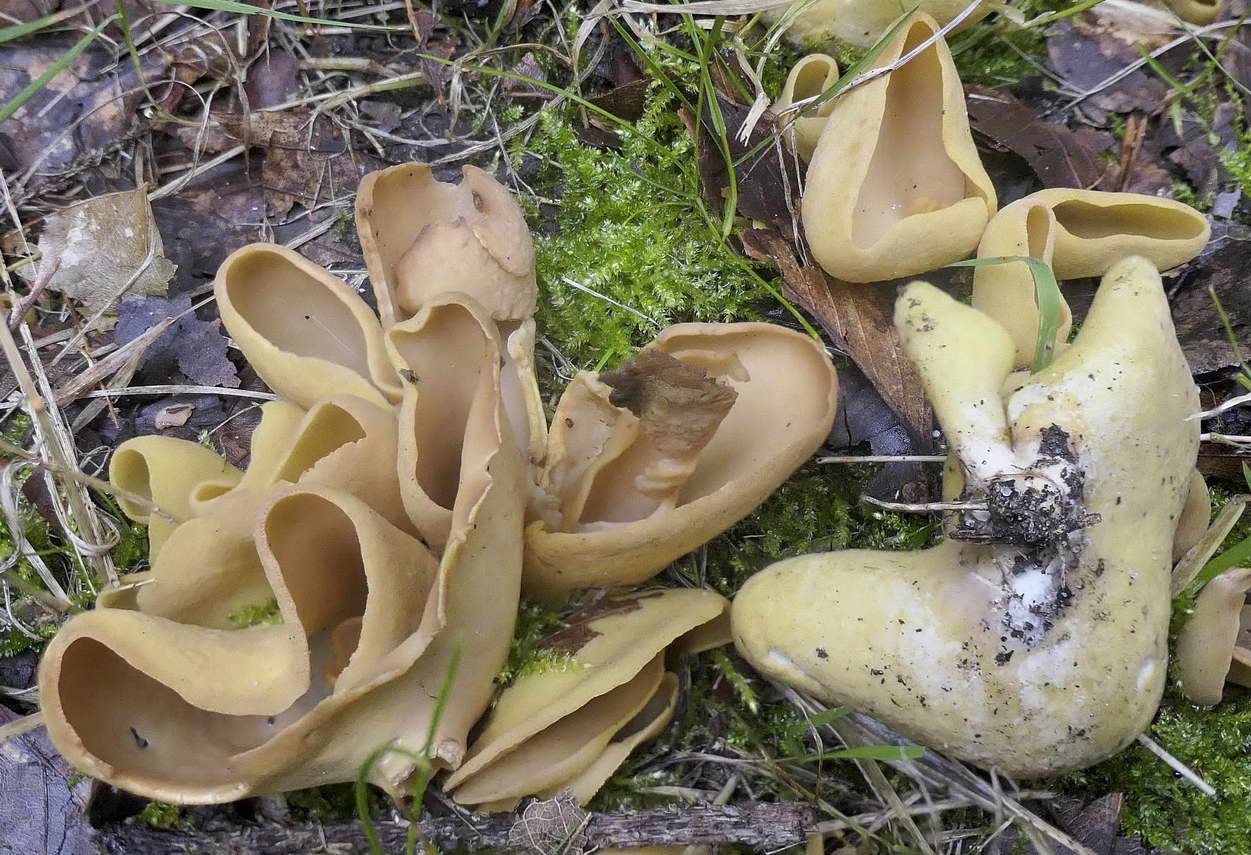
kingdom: Fungi
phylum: Ascomycota
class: Pezizomycetes
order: Pezizales
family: Otideaceae
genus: Otidea
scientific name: Otidea cantharella
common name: citrongul ørebæger
